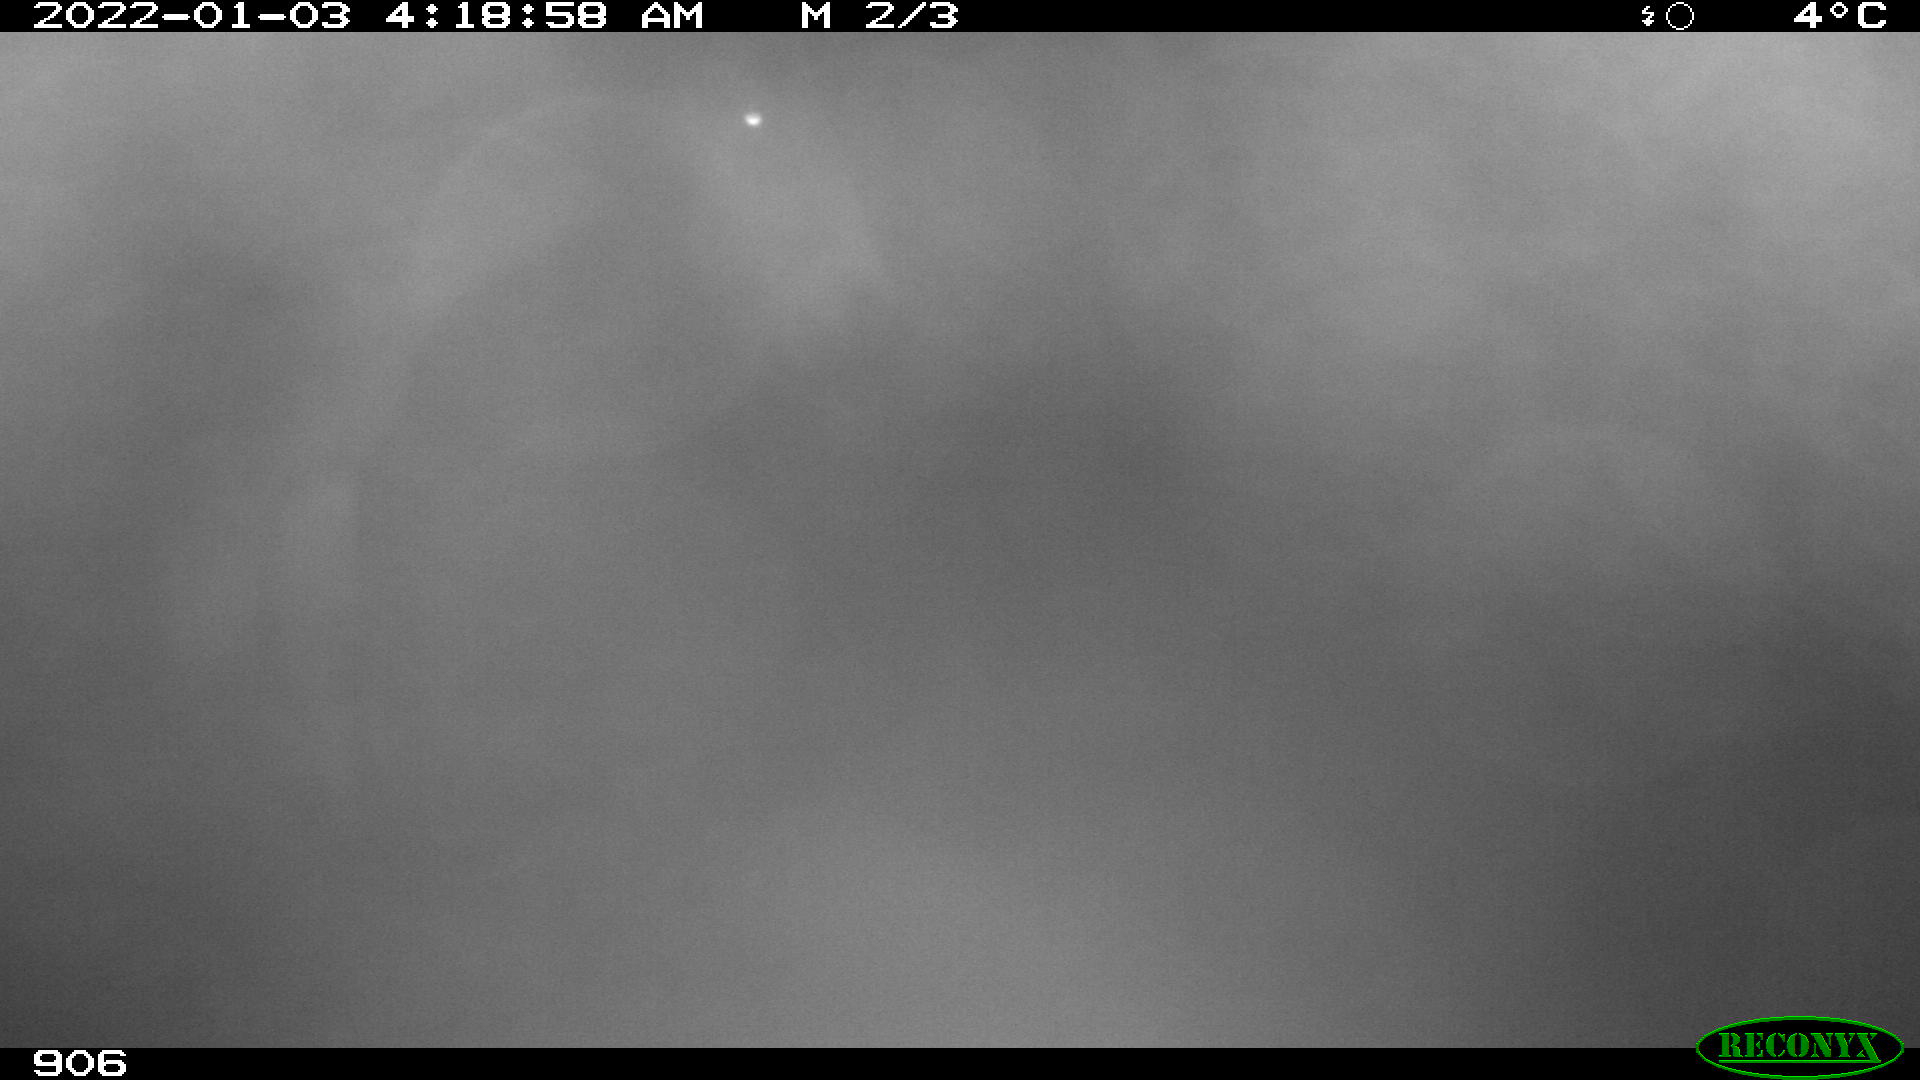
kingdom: Animalia
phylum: Chordata
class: Mammalia
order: Perissodactyla
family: Equidae
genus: Equus
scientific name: Equus caballus
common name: Horse
